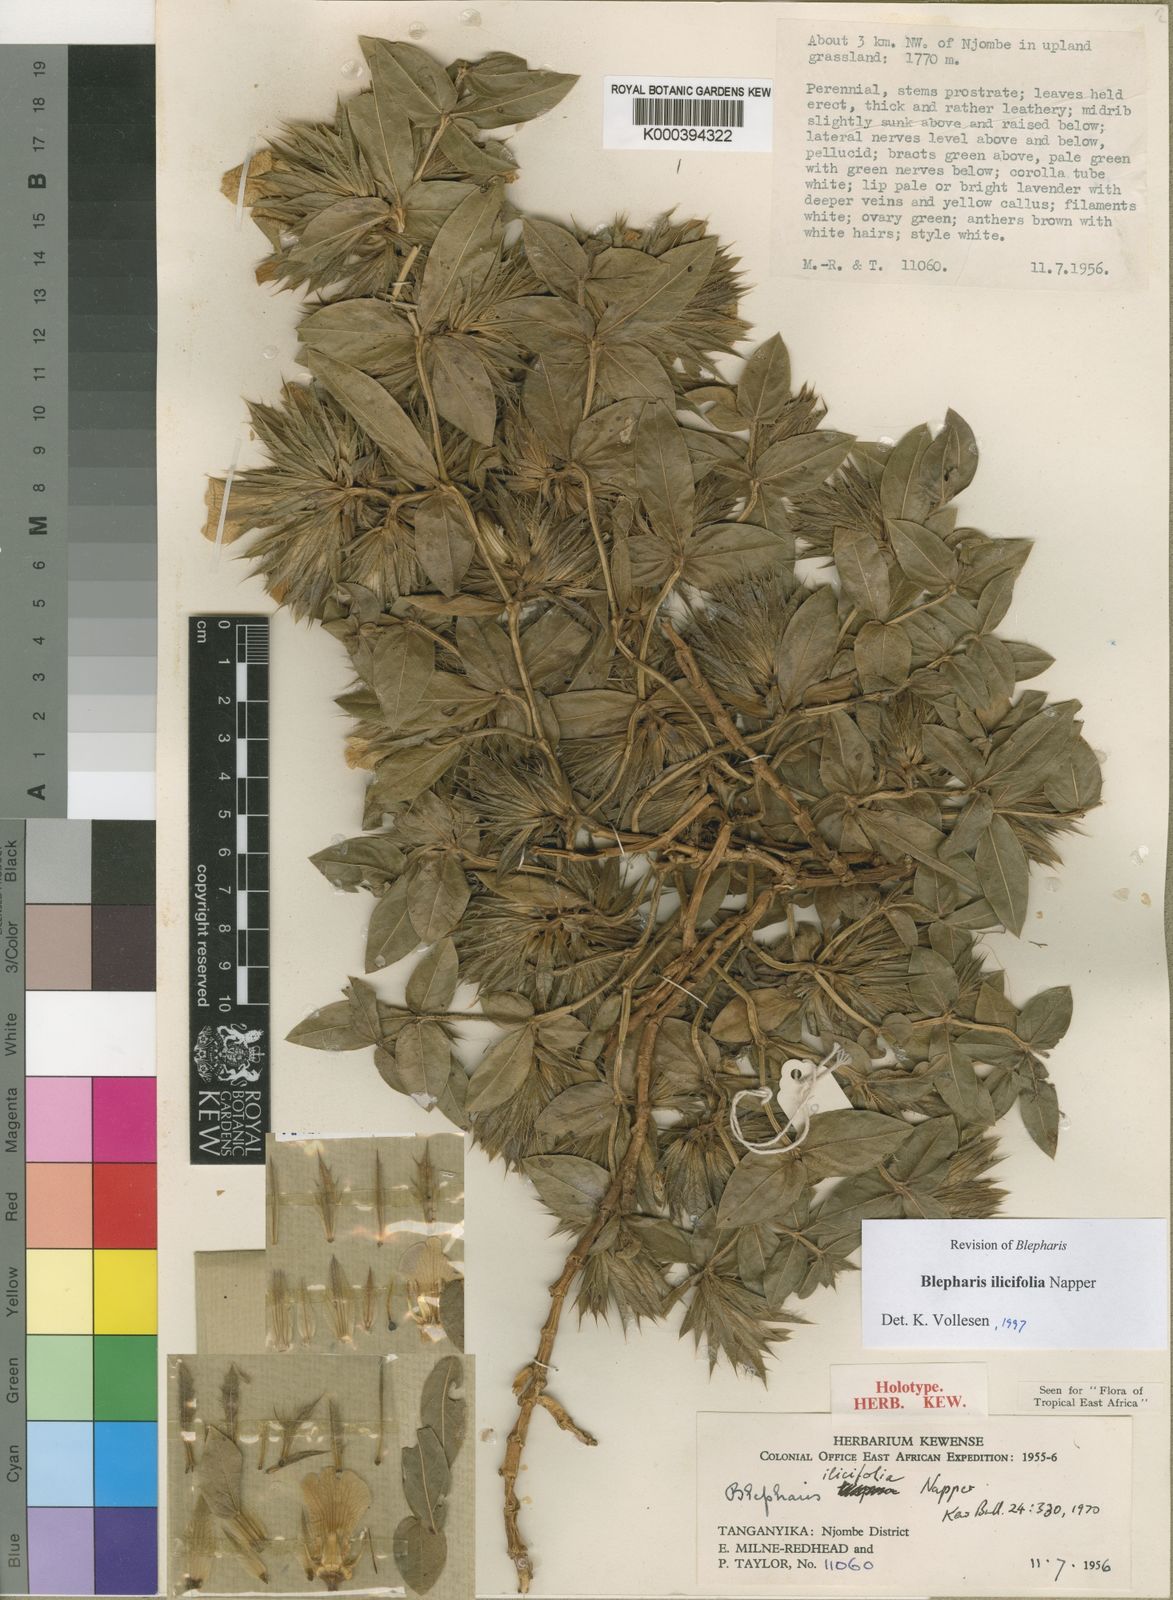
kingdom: Plantae
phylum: Tracheophyta
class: Magnoliopsida
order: Lamiales
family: Acanthaceae
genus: Blepharis
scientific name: Blepharis ilicifolia
